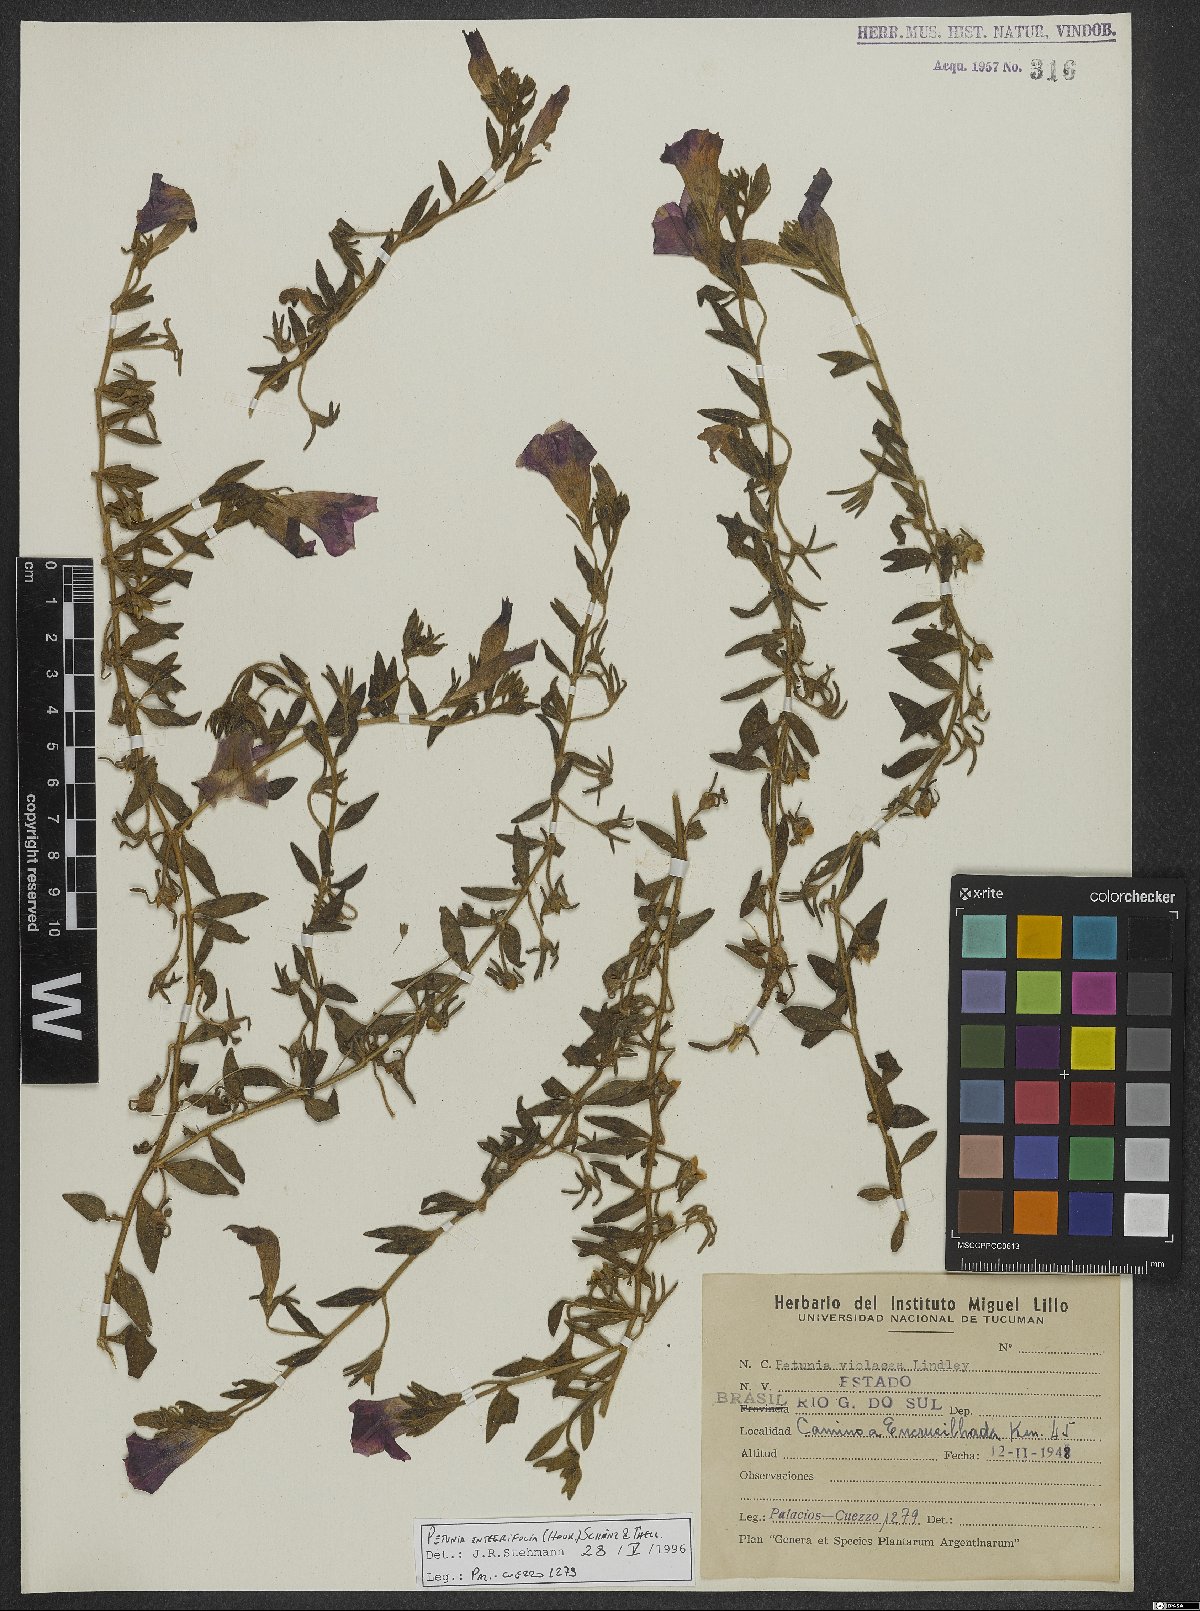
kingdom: Plantae
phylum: Tracheophyta
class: Magnoliopsida
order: Solanales
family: Solanaceae
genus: Petunia
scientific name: Petunia integrifolia
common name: Violet-flower petunia
